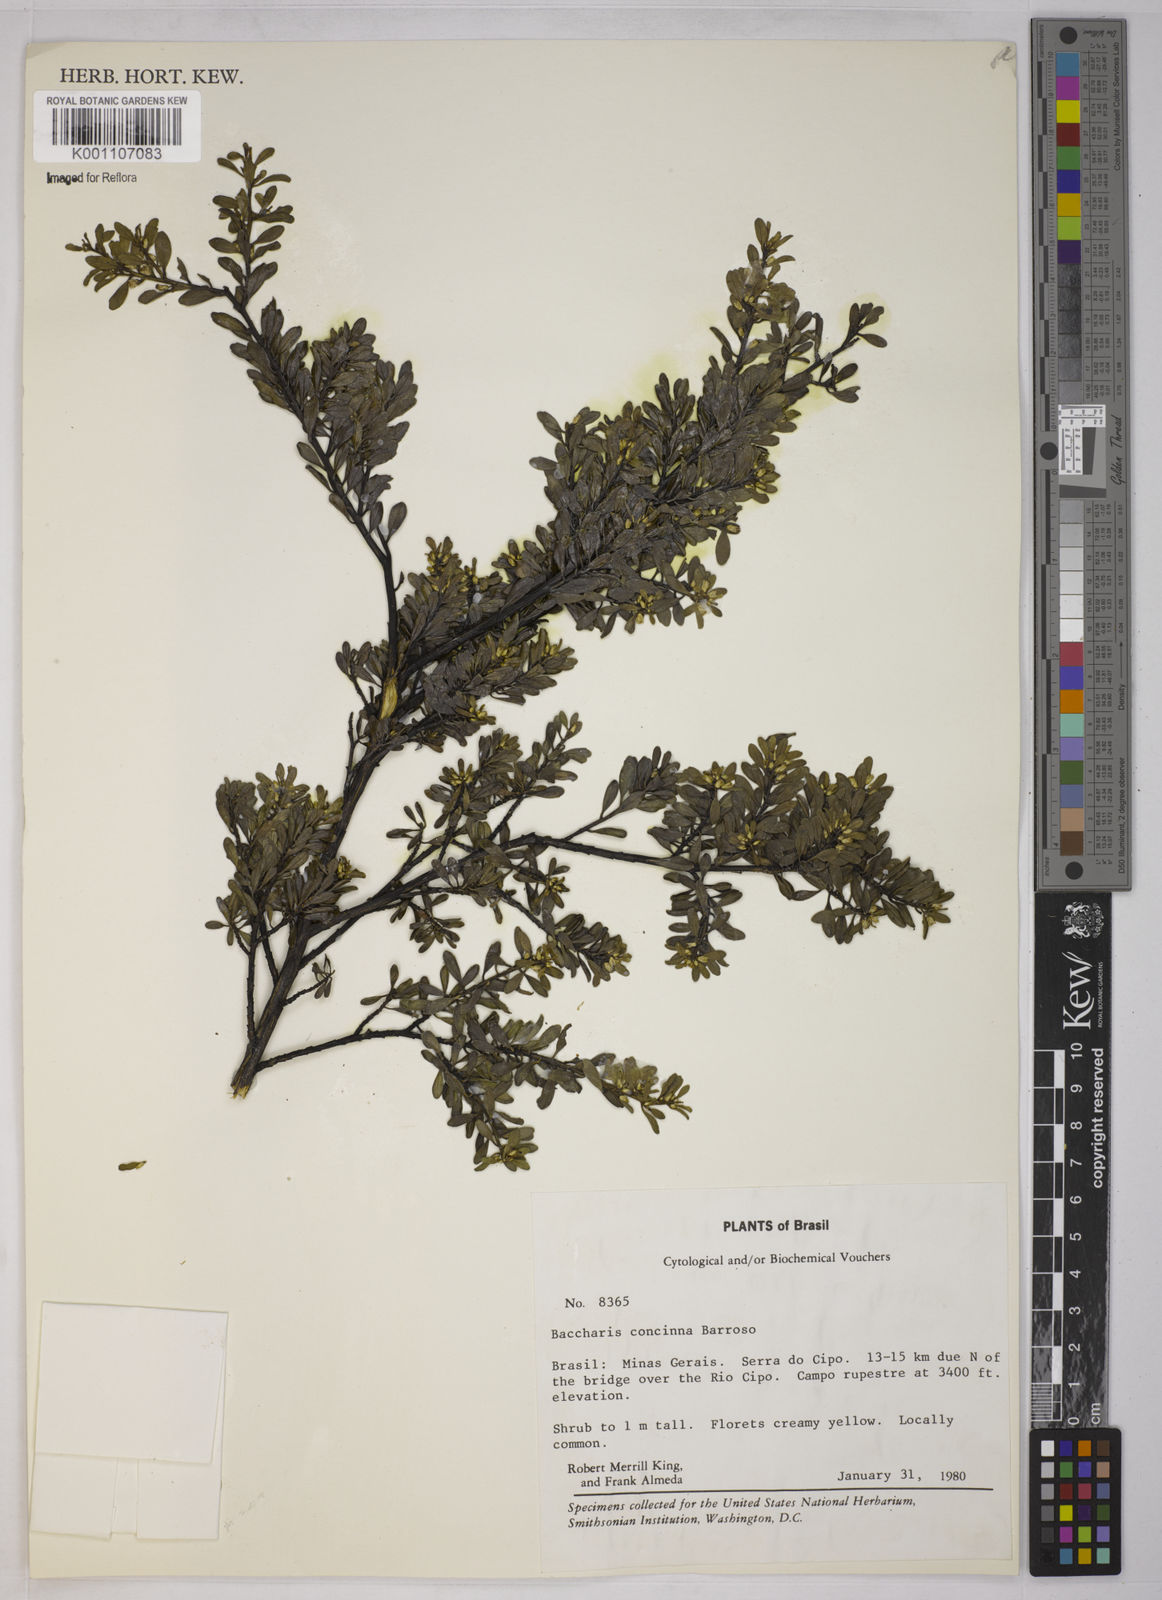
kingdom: Plantae
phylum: Tracheophyta
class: Magnoliopsida
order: Asterales
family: Asteraceae
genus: Baccharis
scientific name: Baccharis concinna
